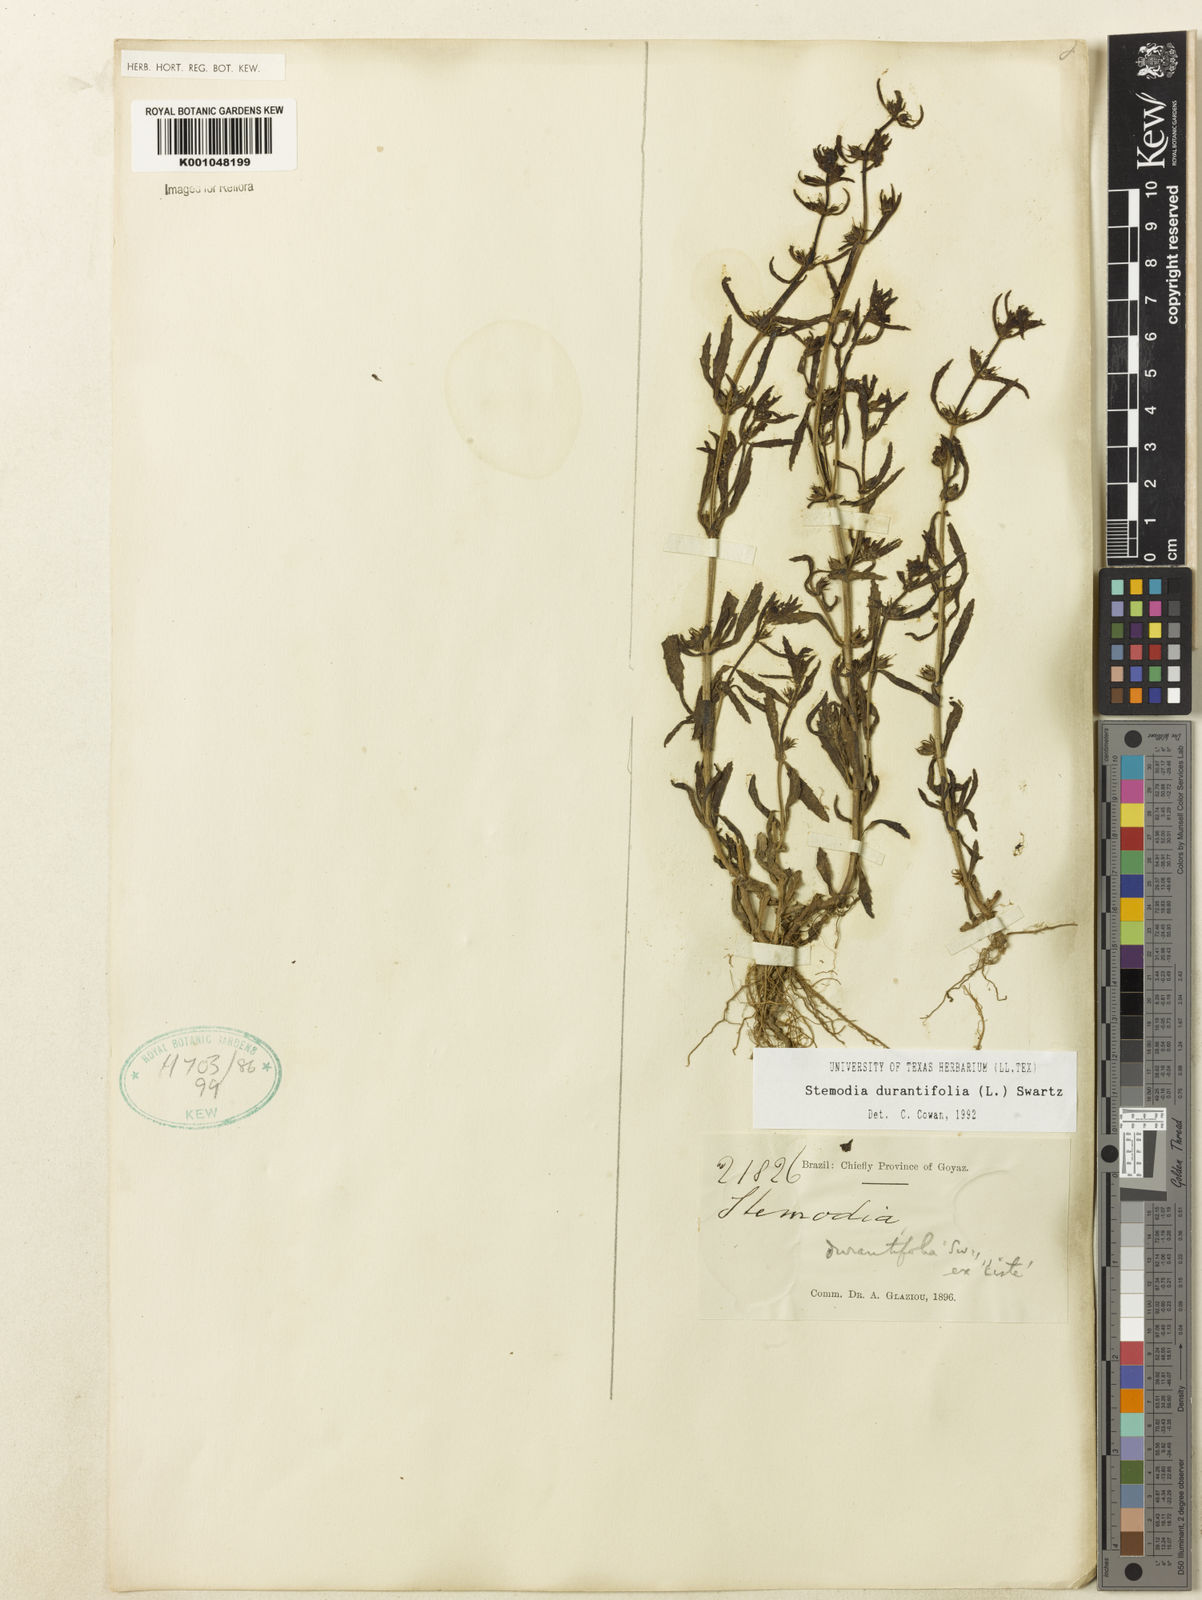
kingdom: Plantae
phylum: Tracheophyta
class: Magnoliopsida
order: Lamiales
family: Plantaginaceae
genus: Stemodia
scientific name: Stemodia durantifolia
